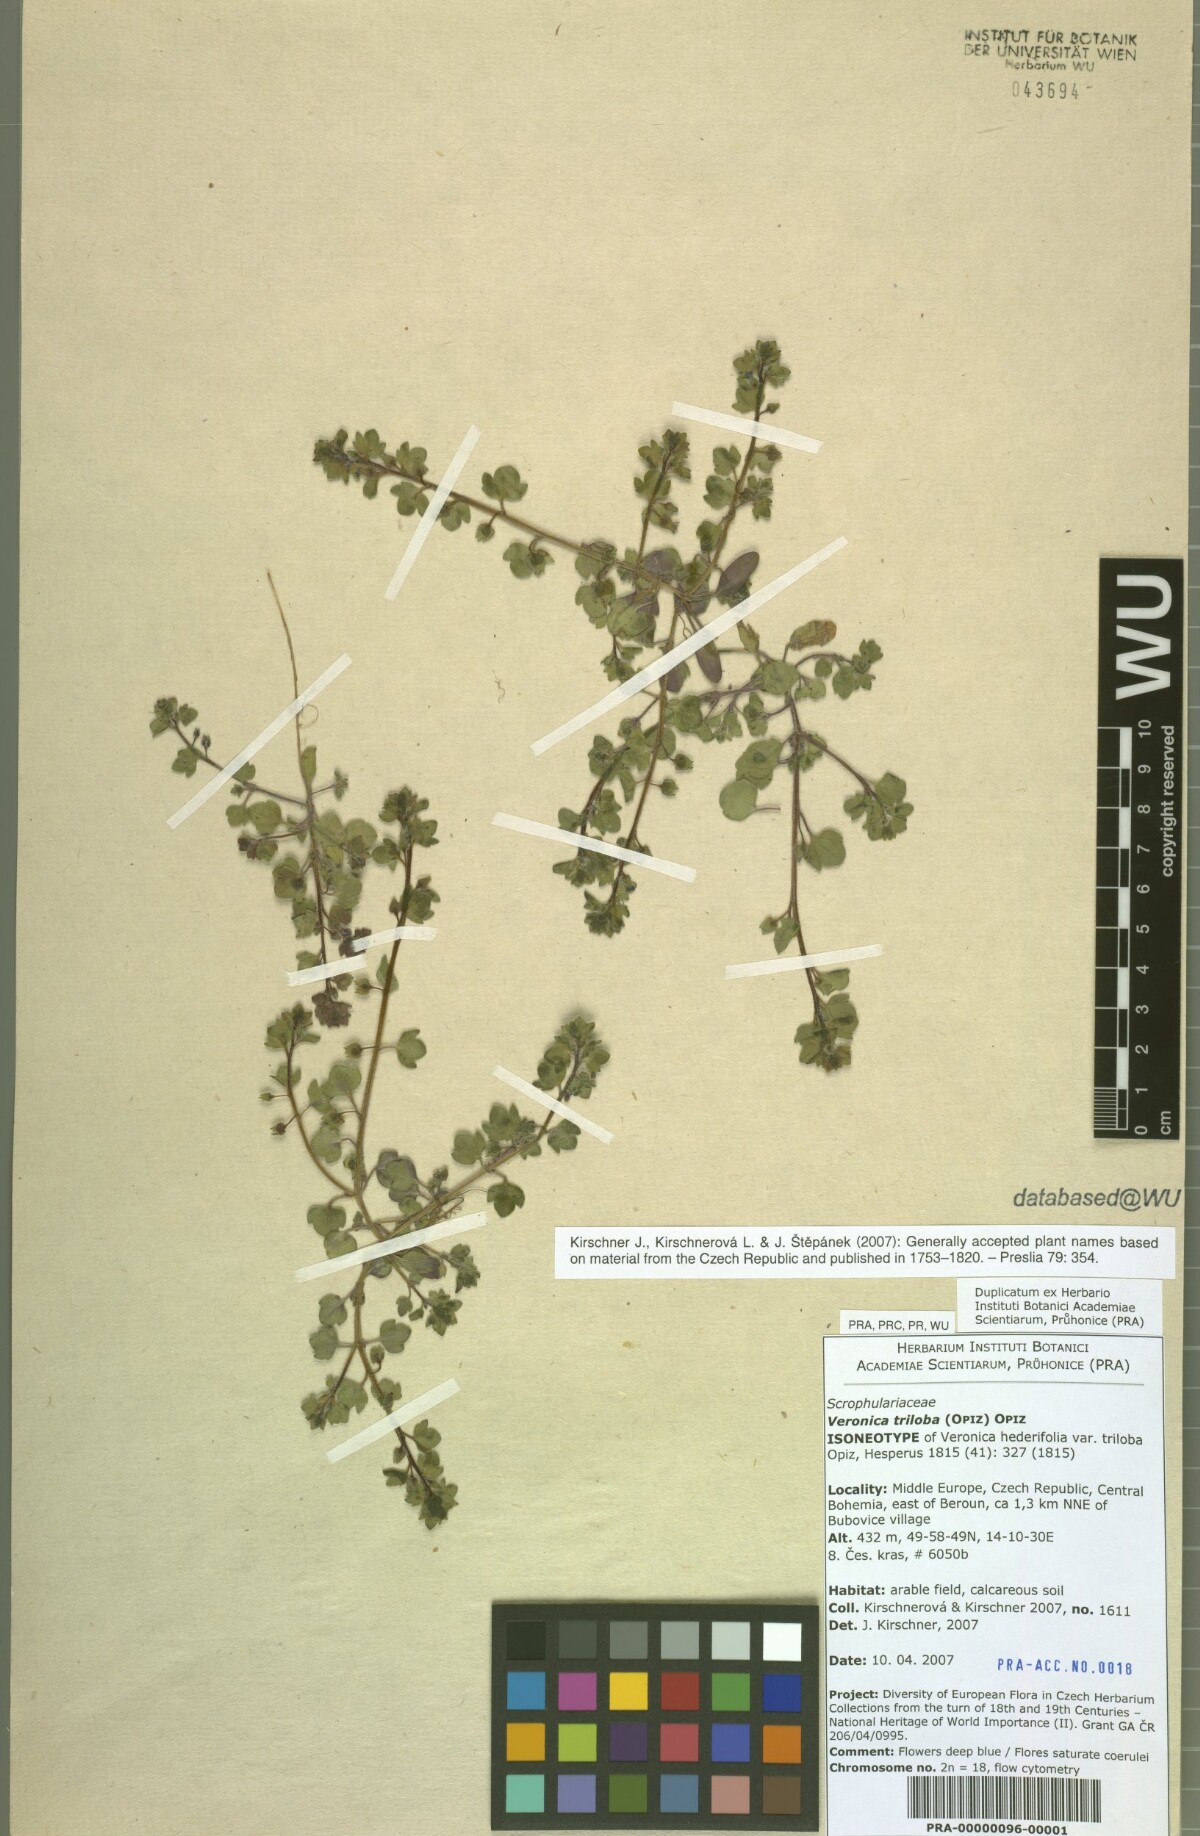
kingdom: Plantae
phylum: Tracheophyta
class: Magnoliopsida
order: Lamiales
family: Plantaginaceae
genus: Veronica
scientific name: Veronica triloba
